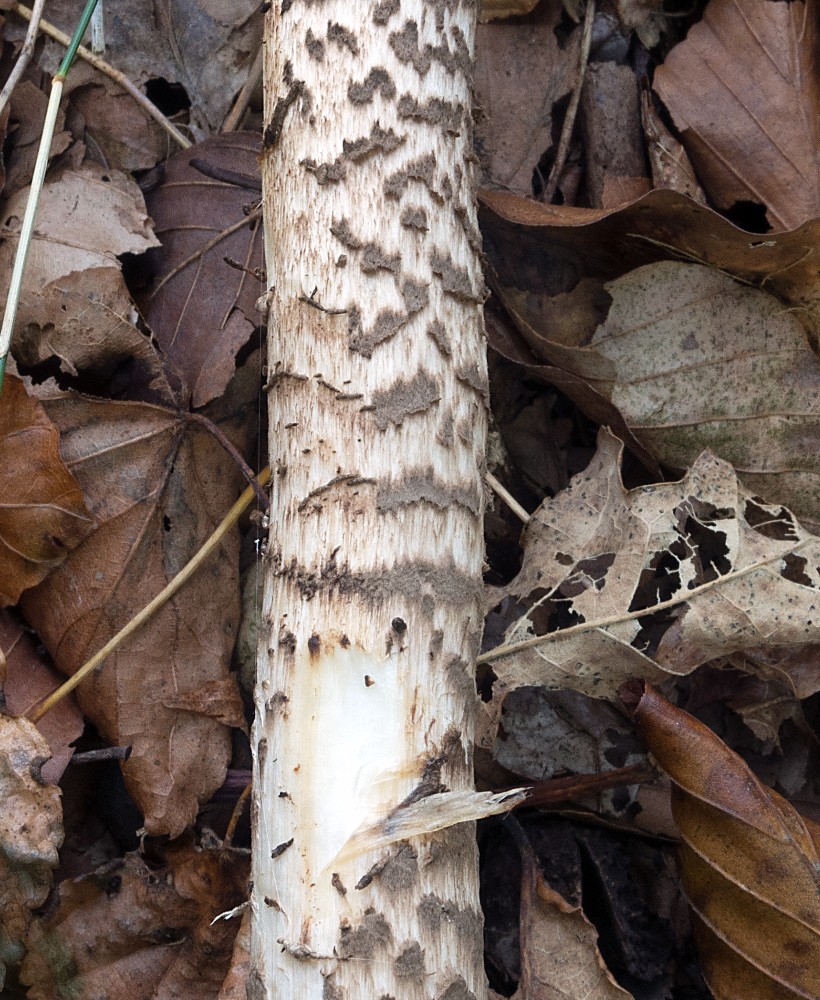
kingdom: Fungi
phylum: Basidiomycota
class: Agaricomycetes
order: Agaricales
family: Agaricaceae
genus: Macrolepiota
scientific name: Macrolepiota fuliginosa
